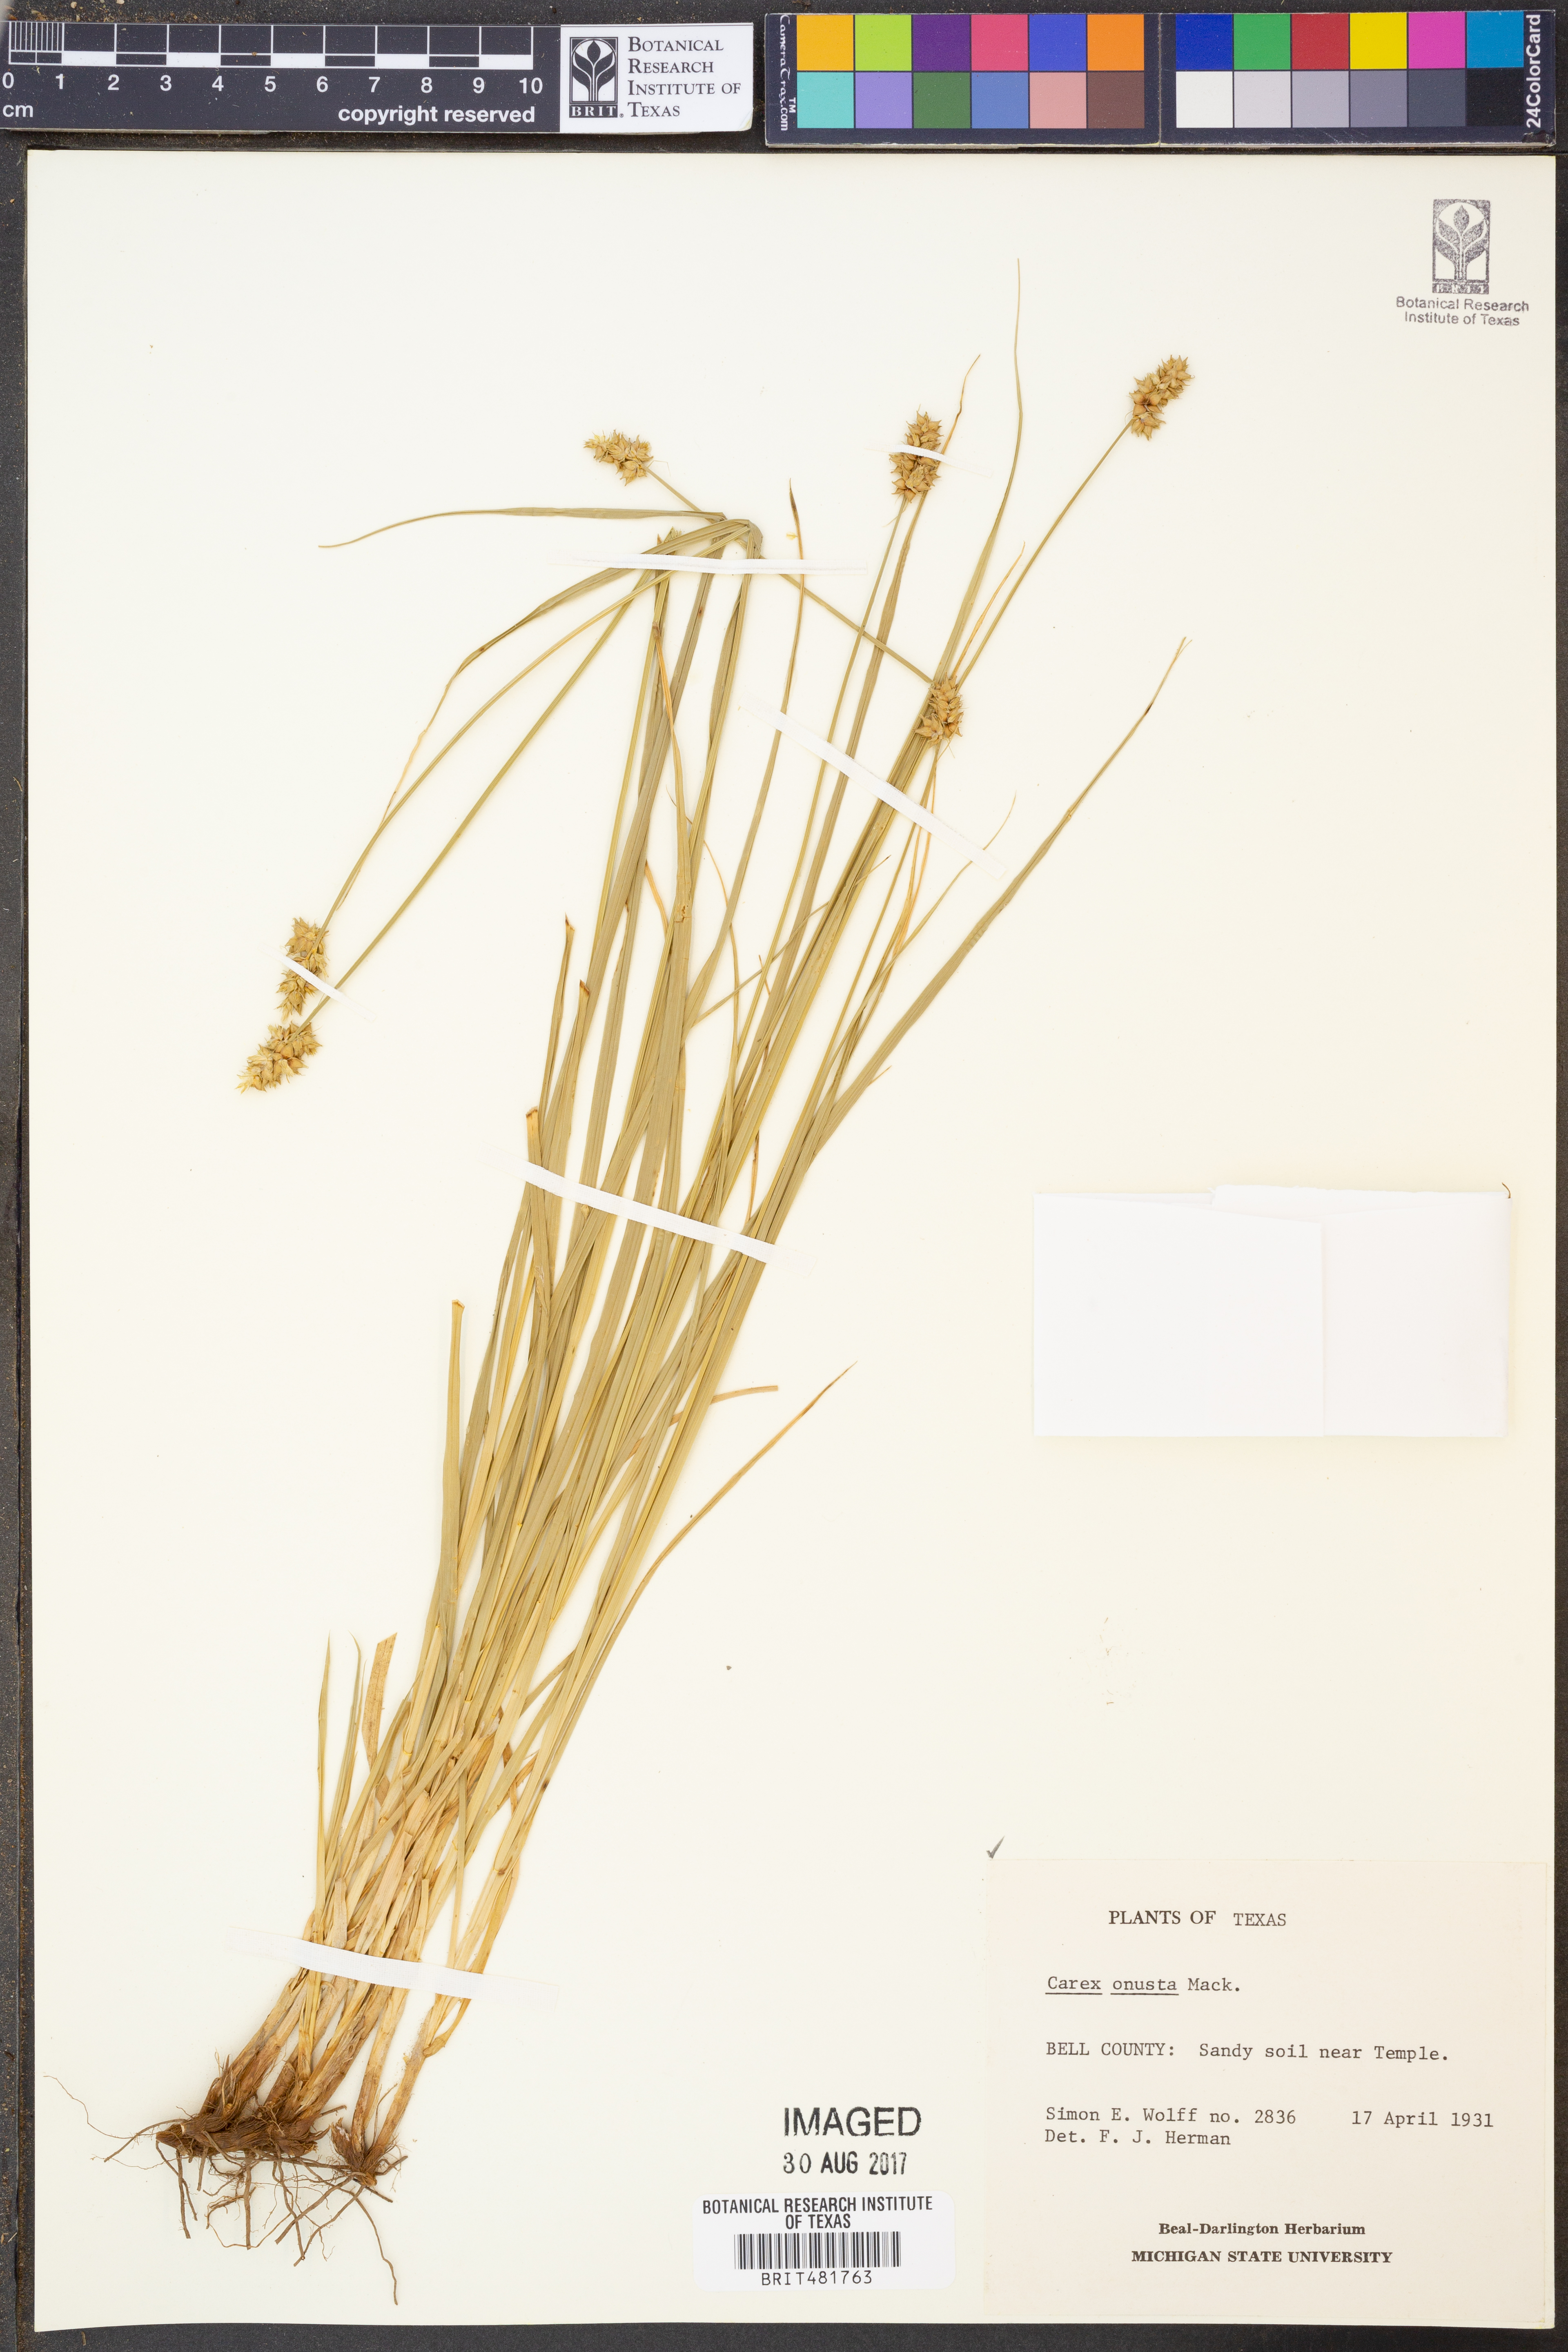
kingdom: Plantae
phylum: Tracheophyta
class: Liliopsida
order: Poales
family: Cyperaceae
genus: Carex
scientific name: Carex muehlenbergii
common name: Muhlenberg's bracted sedge
